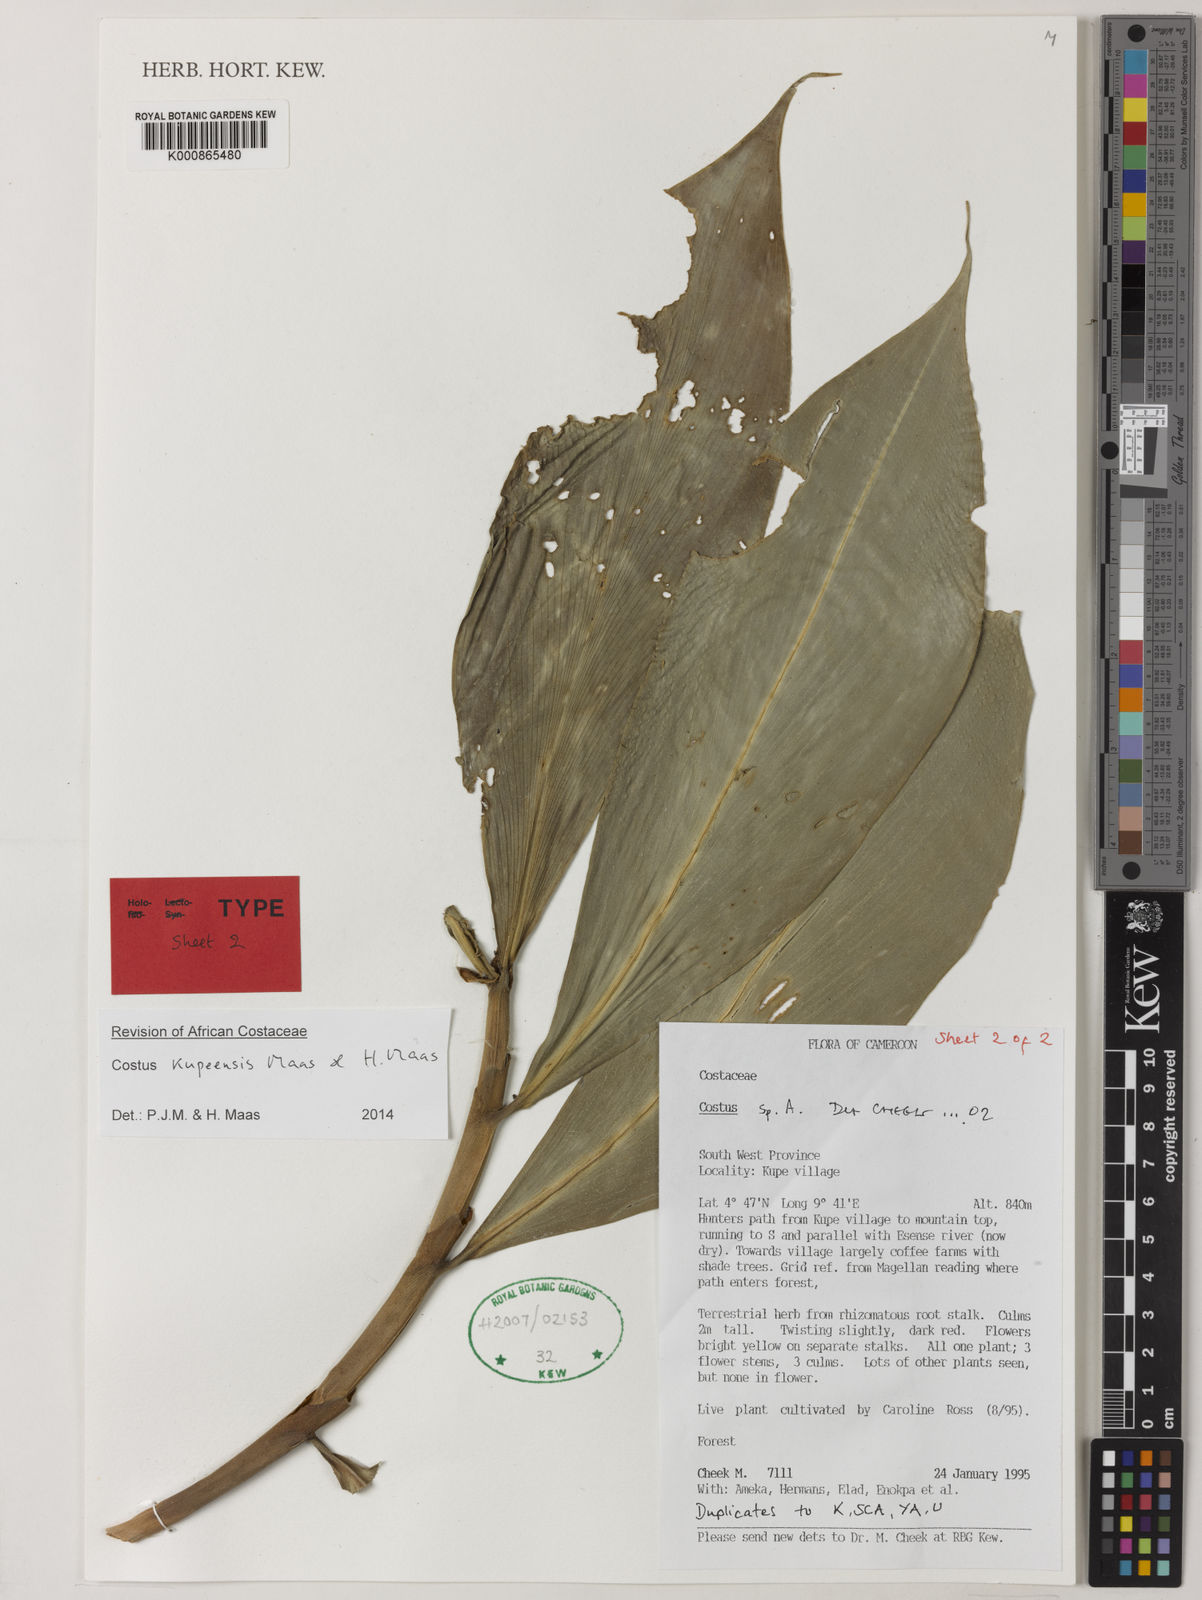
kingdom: Plantae
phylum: Tracheophyta
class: Liliopsida
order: Zingiberales
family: Costaceae
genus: Costus
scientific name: Costus kupensis
